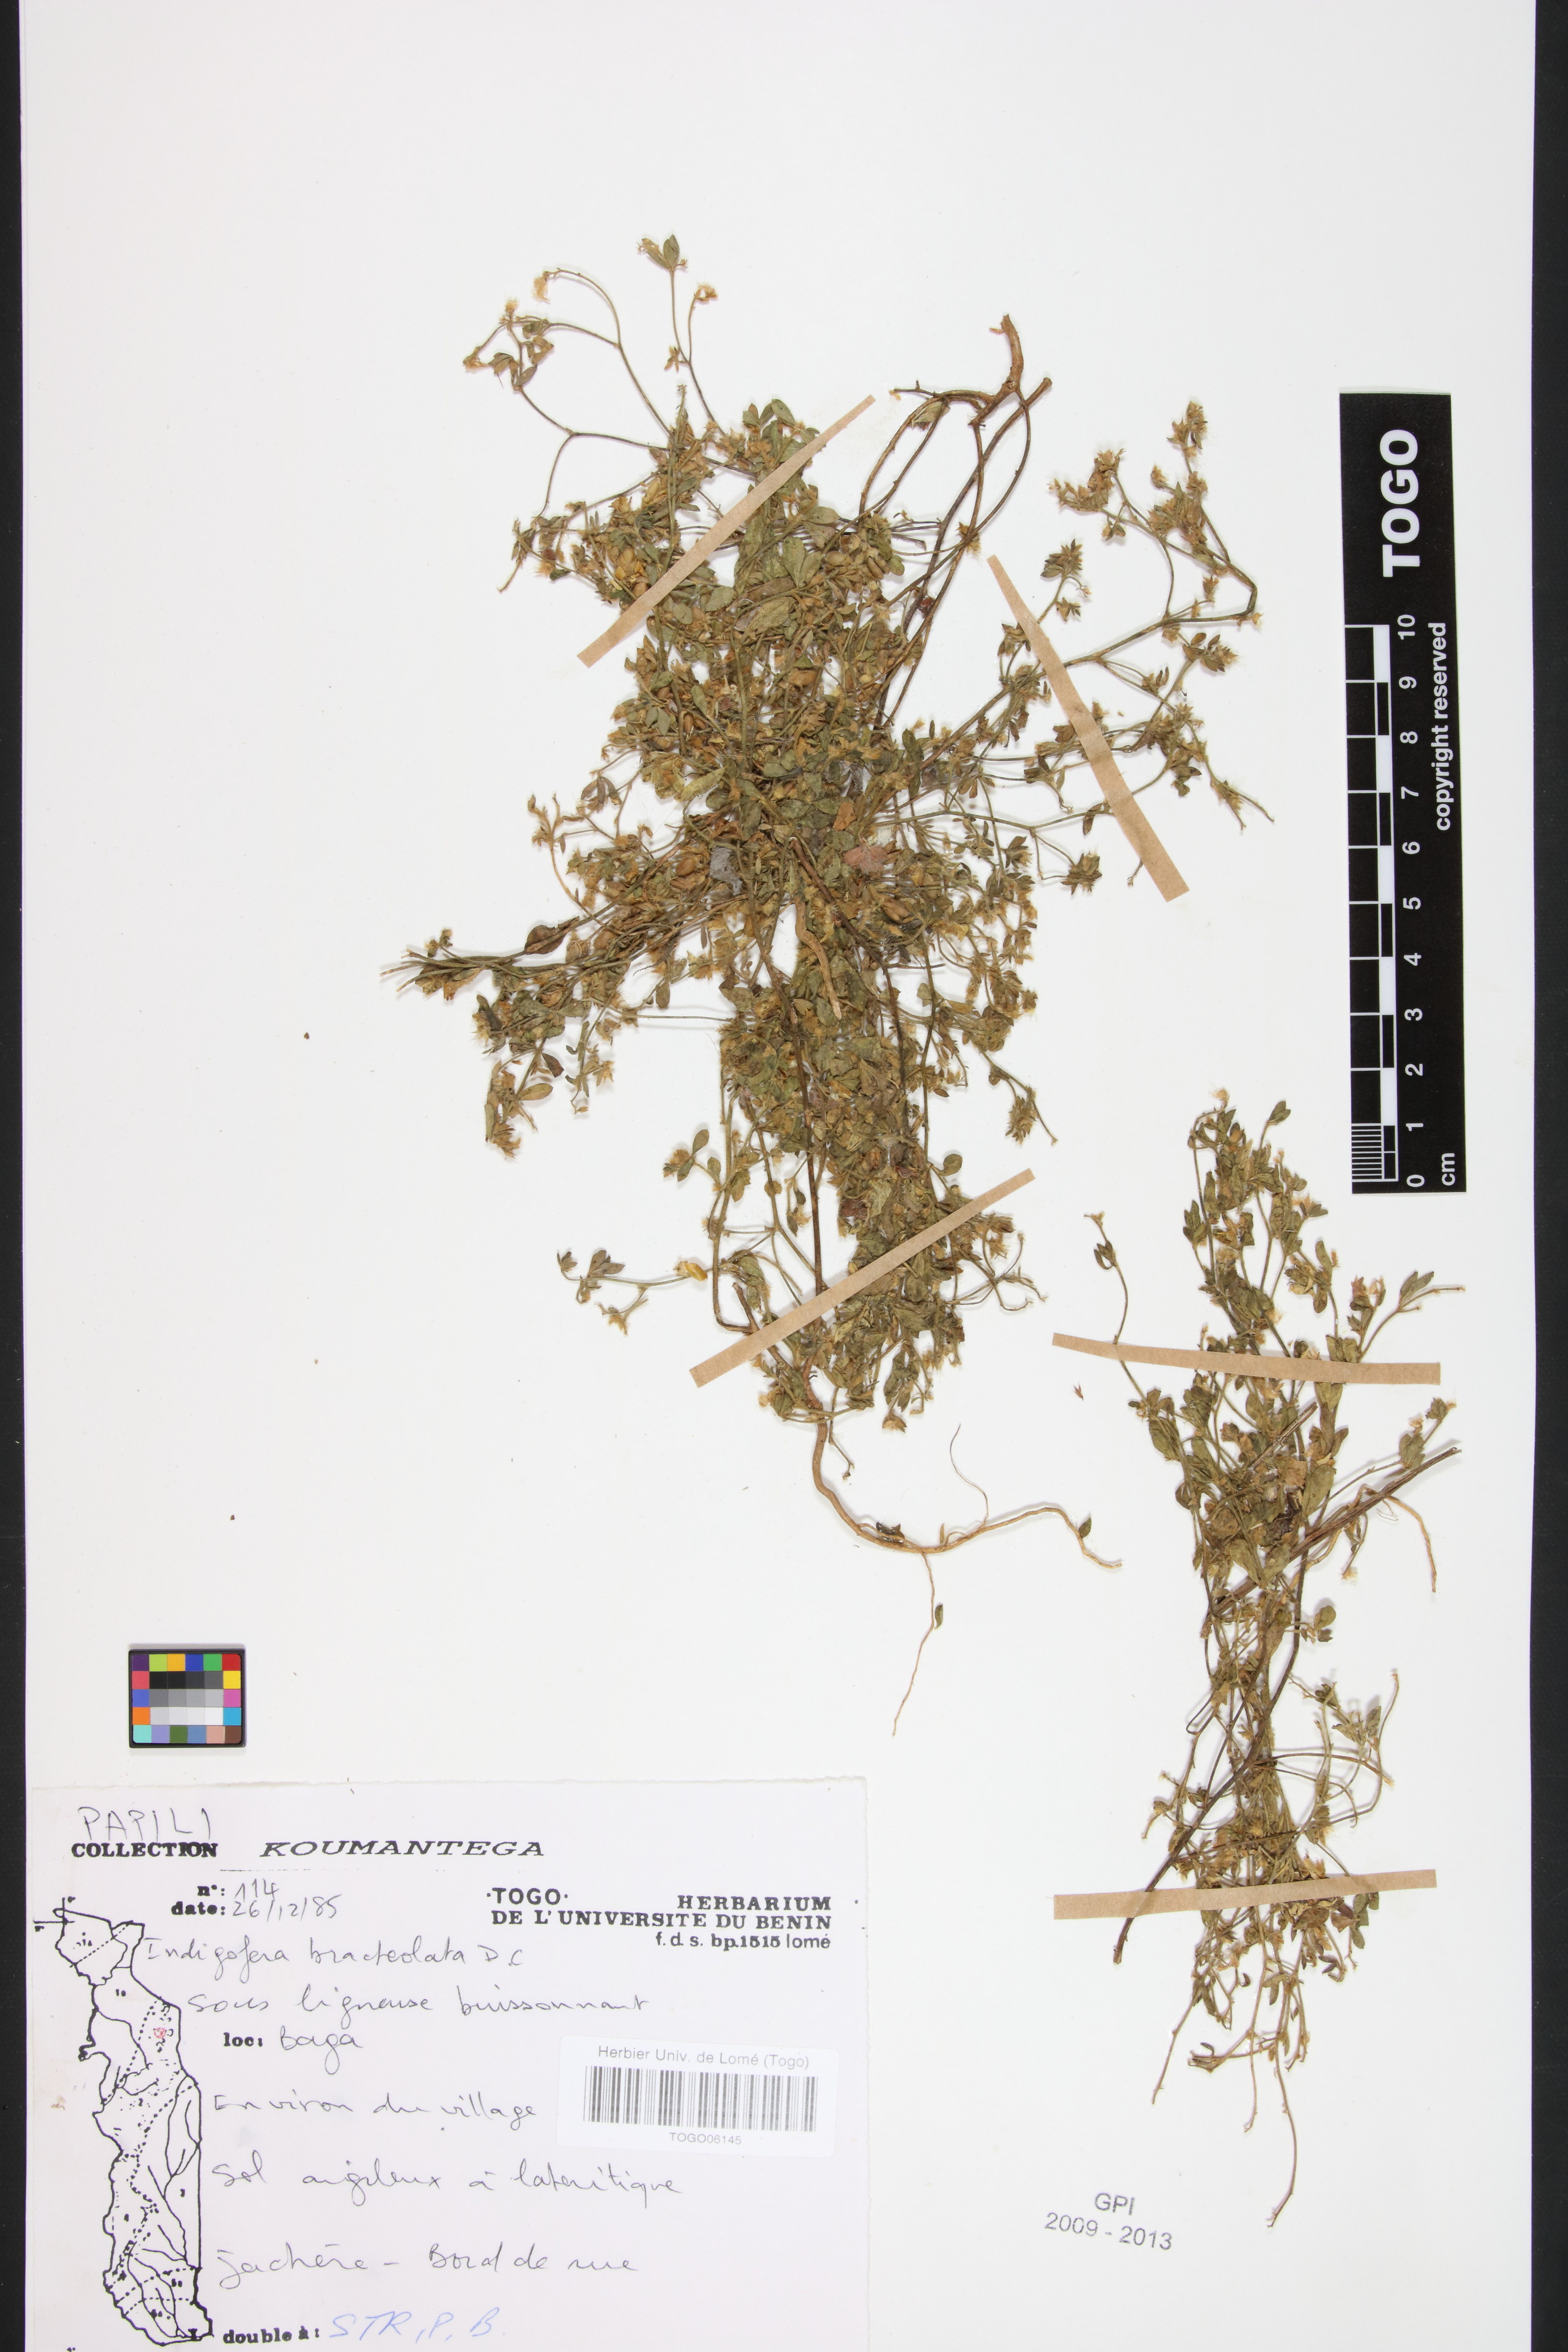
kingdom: Plantae
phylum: Tracheophyta
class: Magnoliopsida
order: Fabales
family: Fabaceae
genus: Indigofera
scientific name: Indigofera bracteolata
